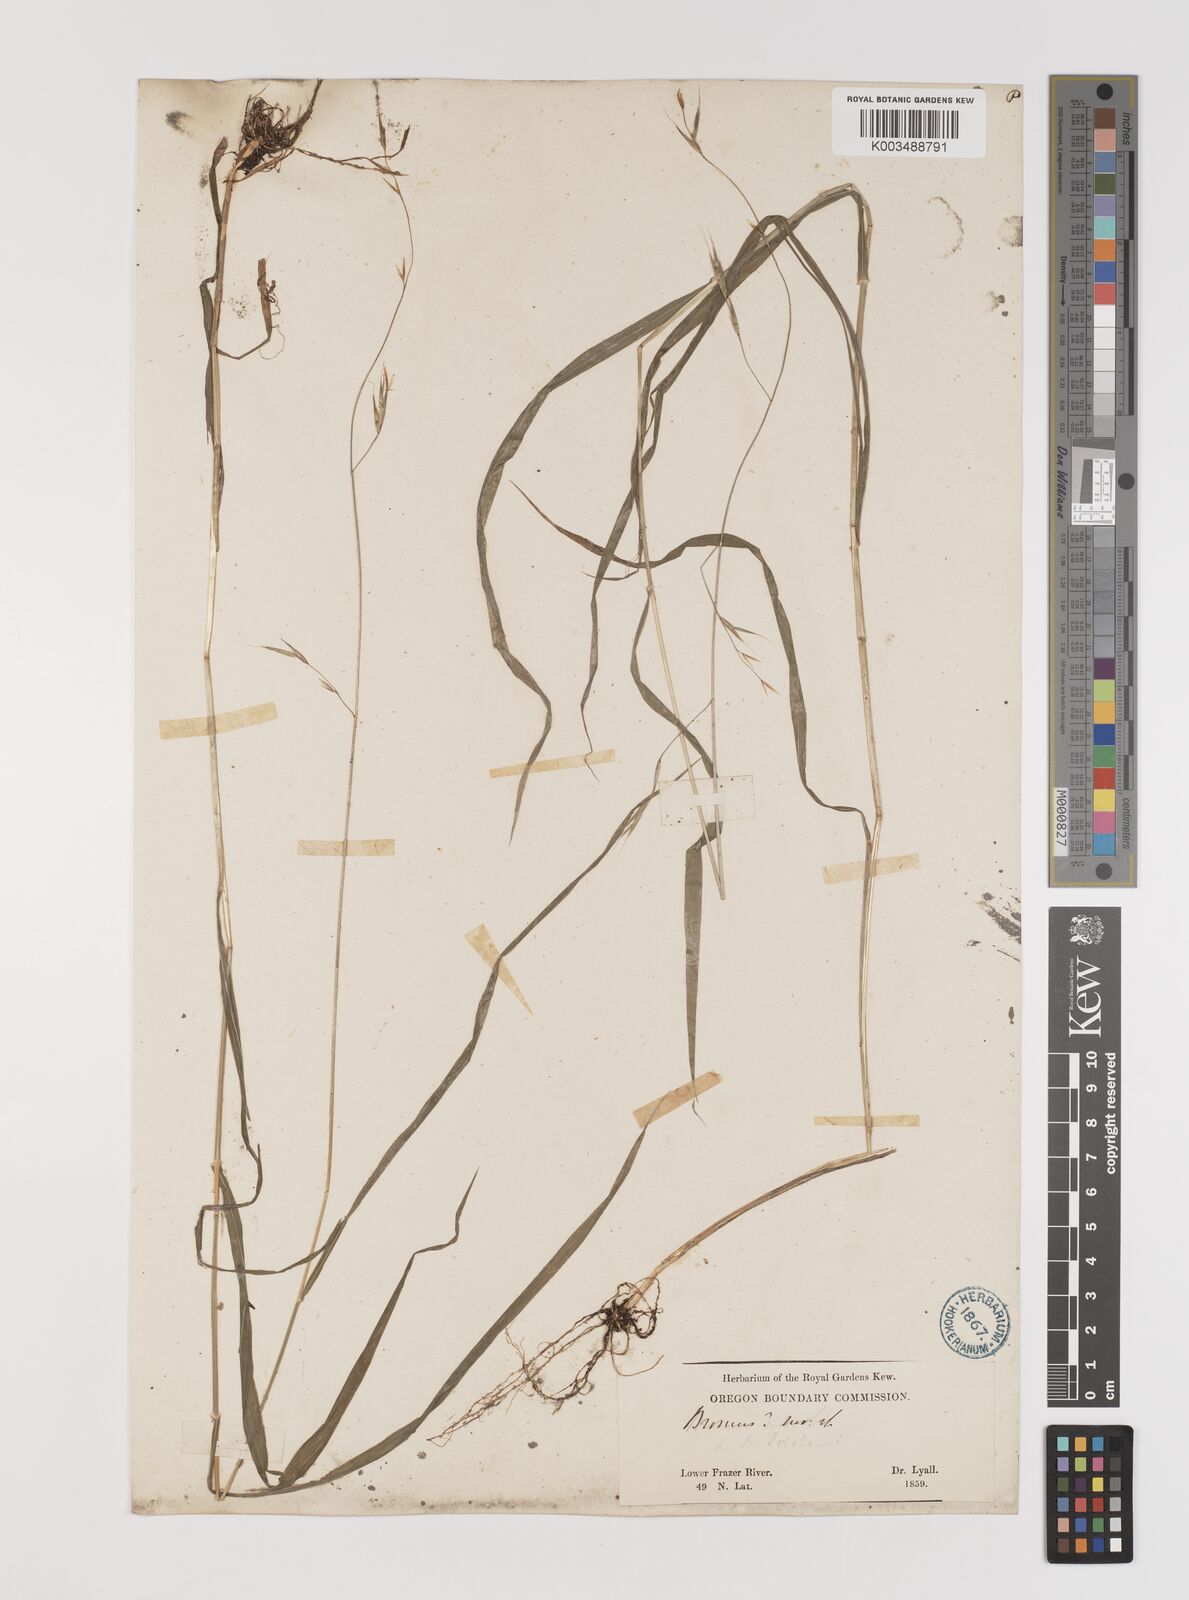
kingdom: Plantae
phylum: Tracheophyta
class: Liliopsida
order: Poales
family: Poaceae
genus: Bromus
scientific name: Bromus
